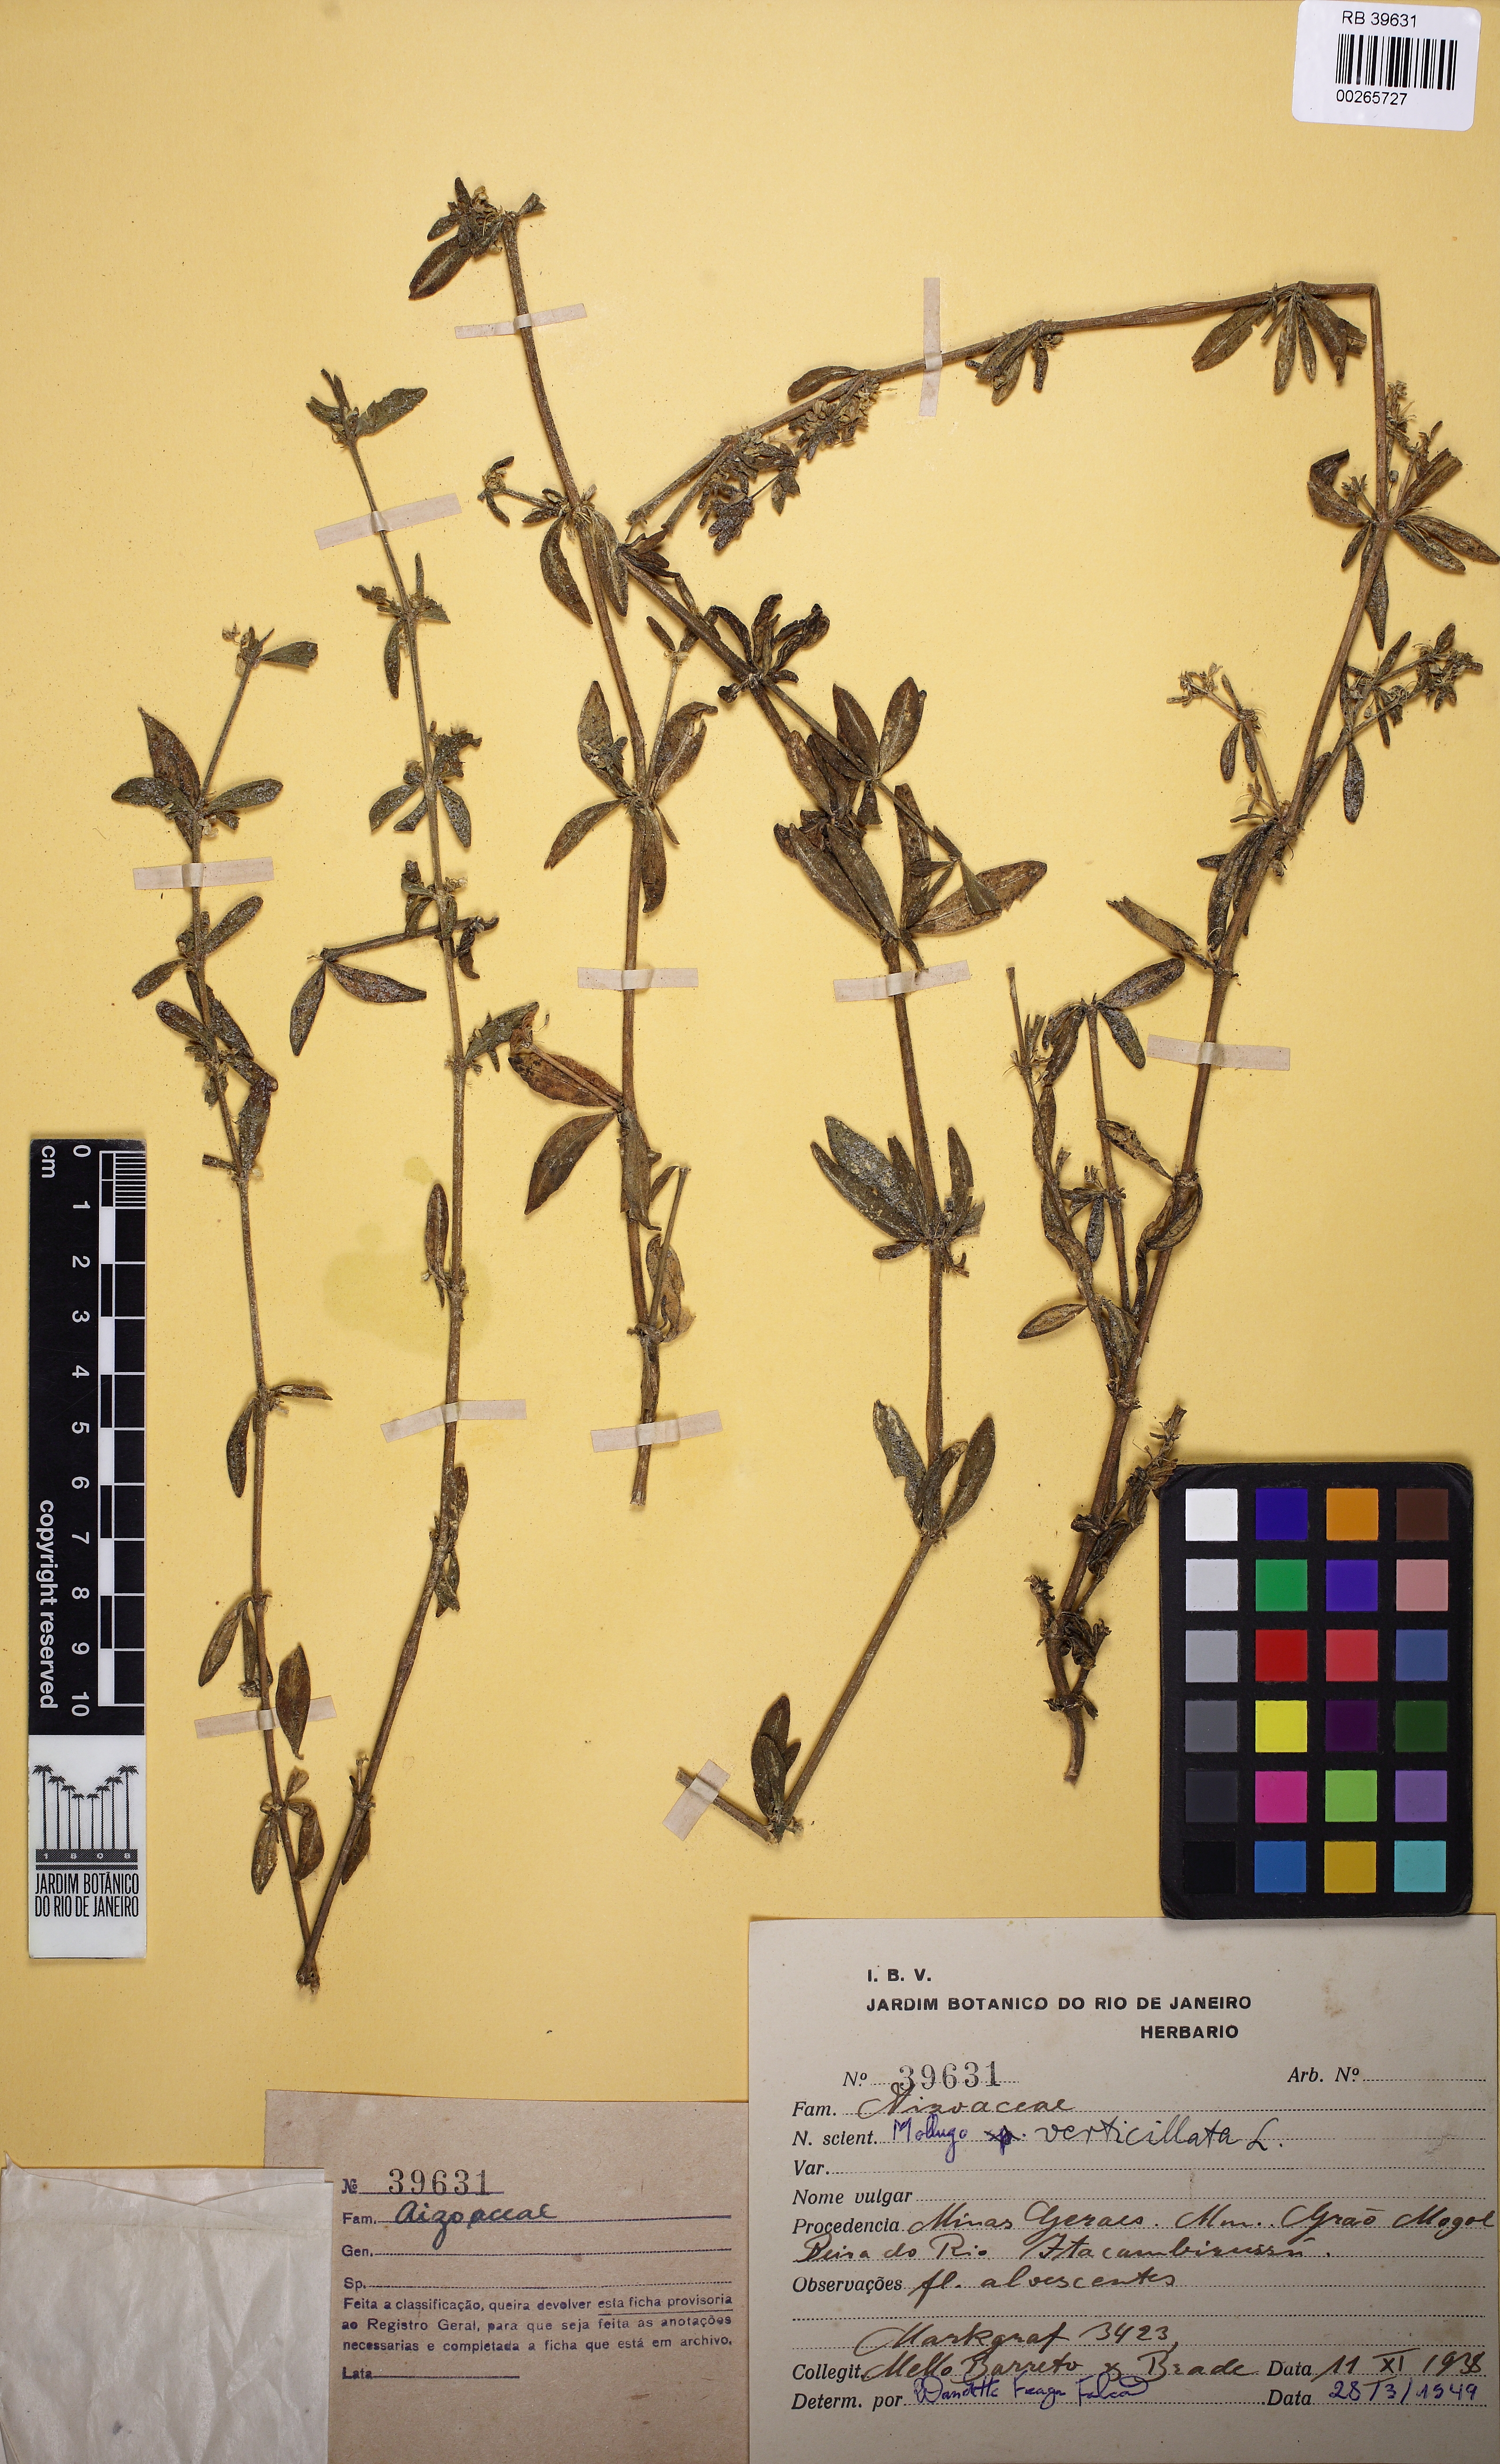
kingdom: Plantae
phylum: Tracheophyta
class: Magnoliopsida
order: Caryophyllales
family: Molluginaceae
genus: Mollugo
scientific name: Mollugo verticillata
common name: Green carpetweed
